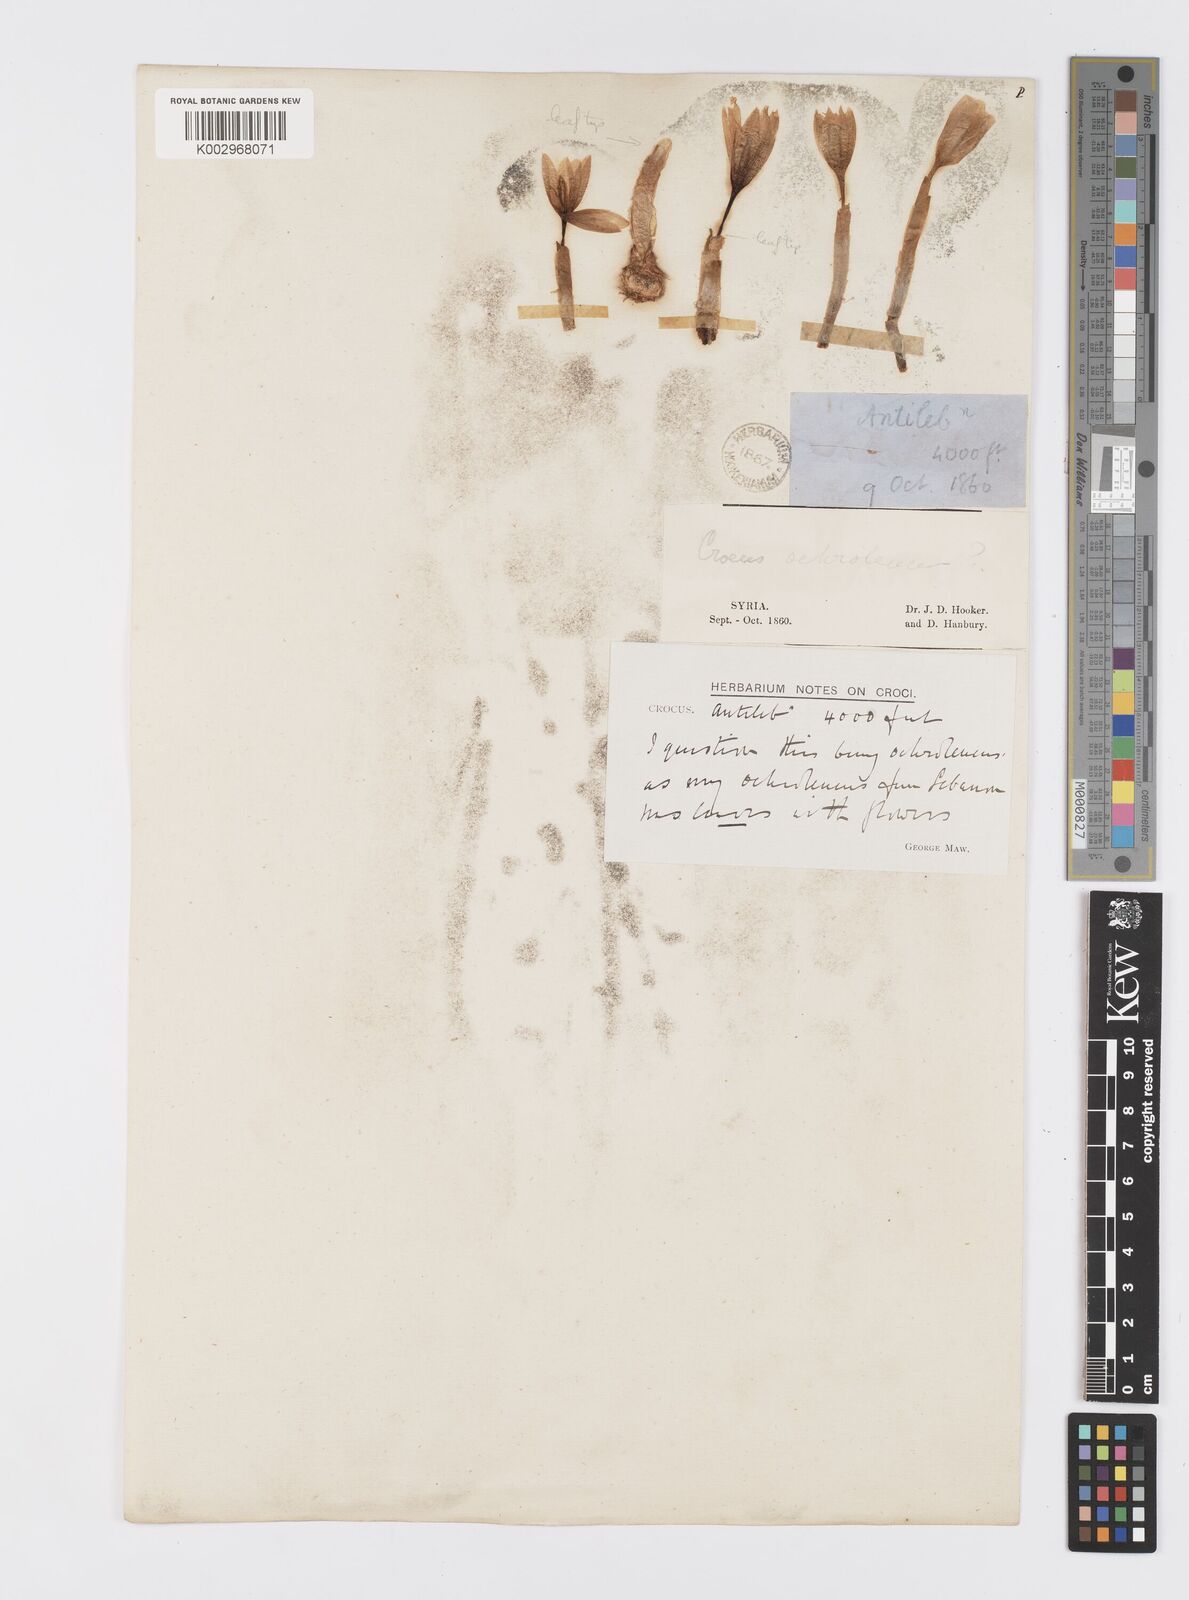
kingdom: Plantae
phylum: Tracheophyta
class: Liliopsida
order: Asparagales
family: Iridaceae
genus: Crocus
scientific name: Crocus ochroleucus
